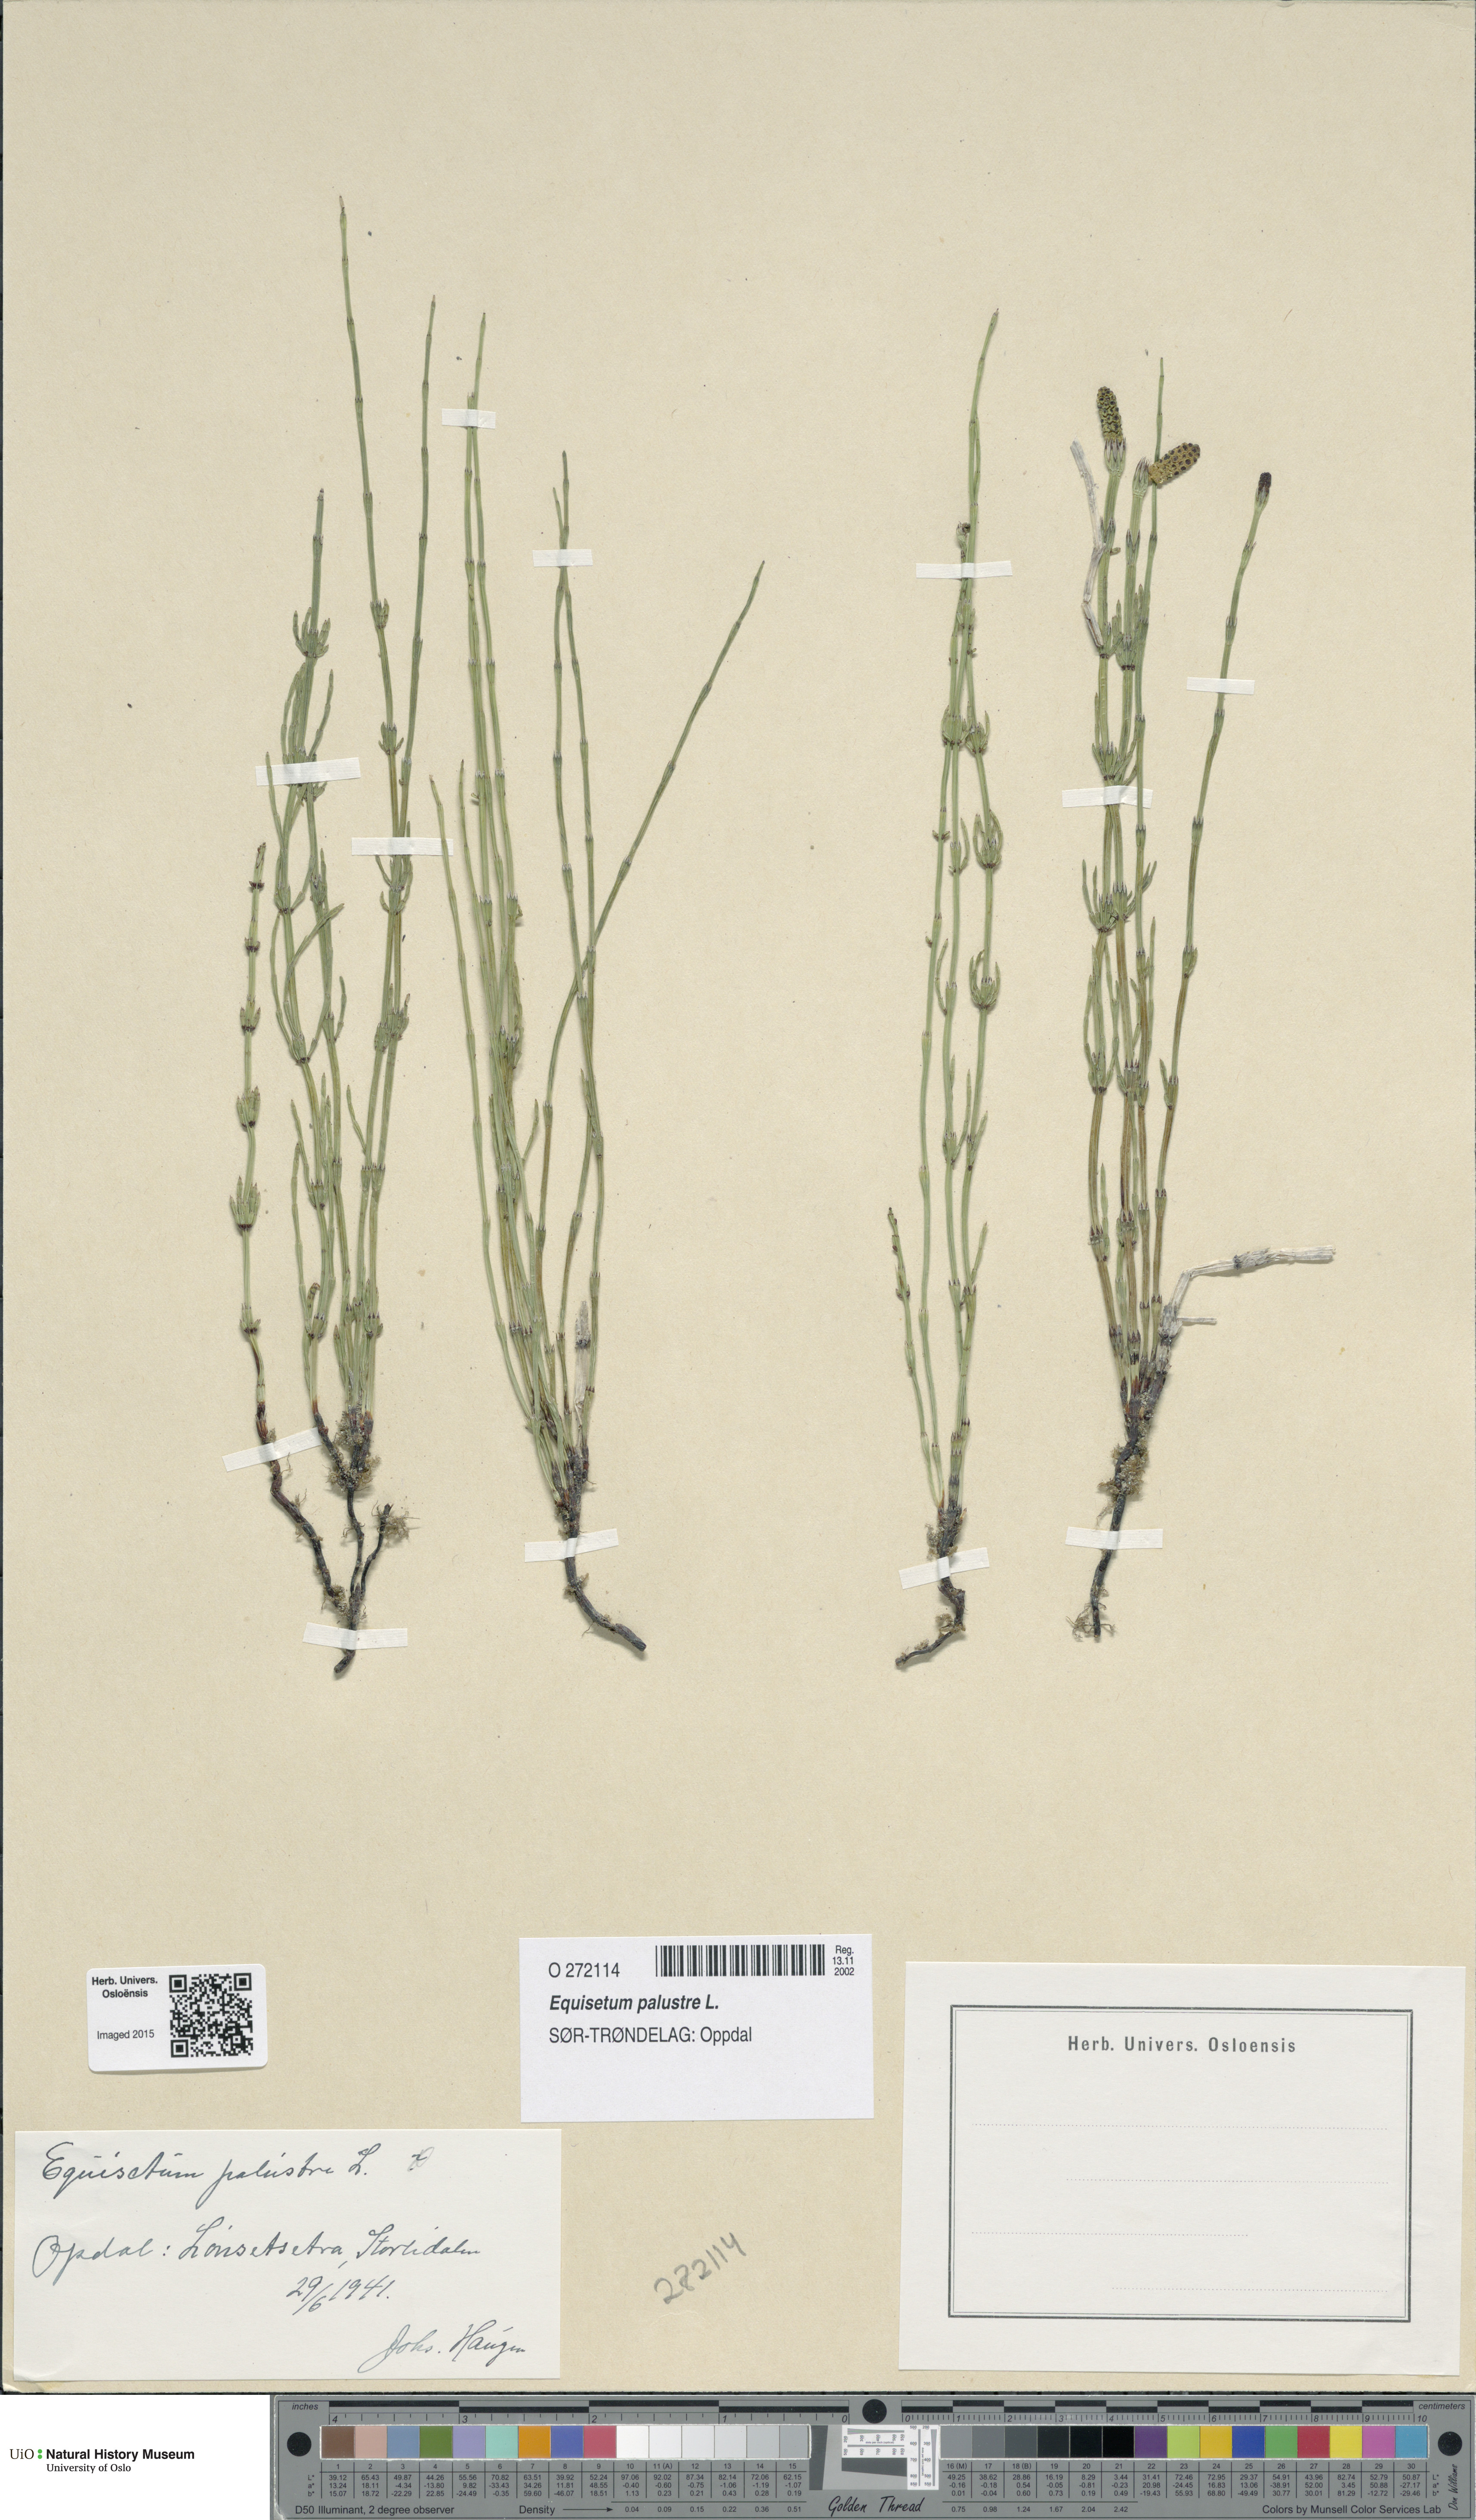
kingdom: Plantae
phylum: Tracheophyta
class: Polypodiopsida
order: Equisetales
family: Equisetaceae
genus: Equisetum
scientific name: Equisetum palustre
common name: Marsh horsetail
